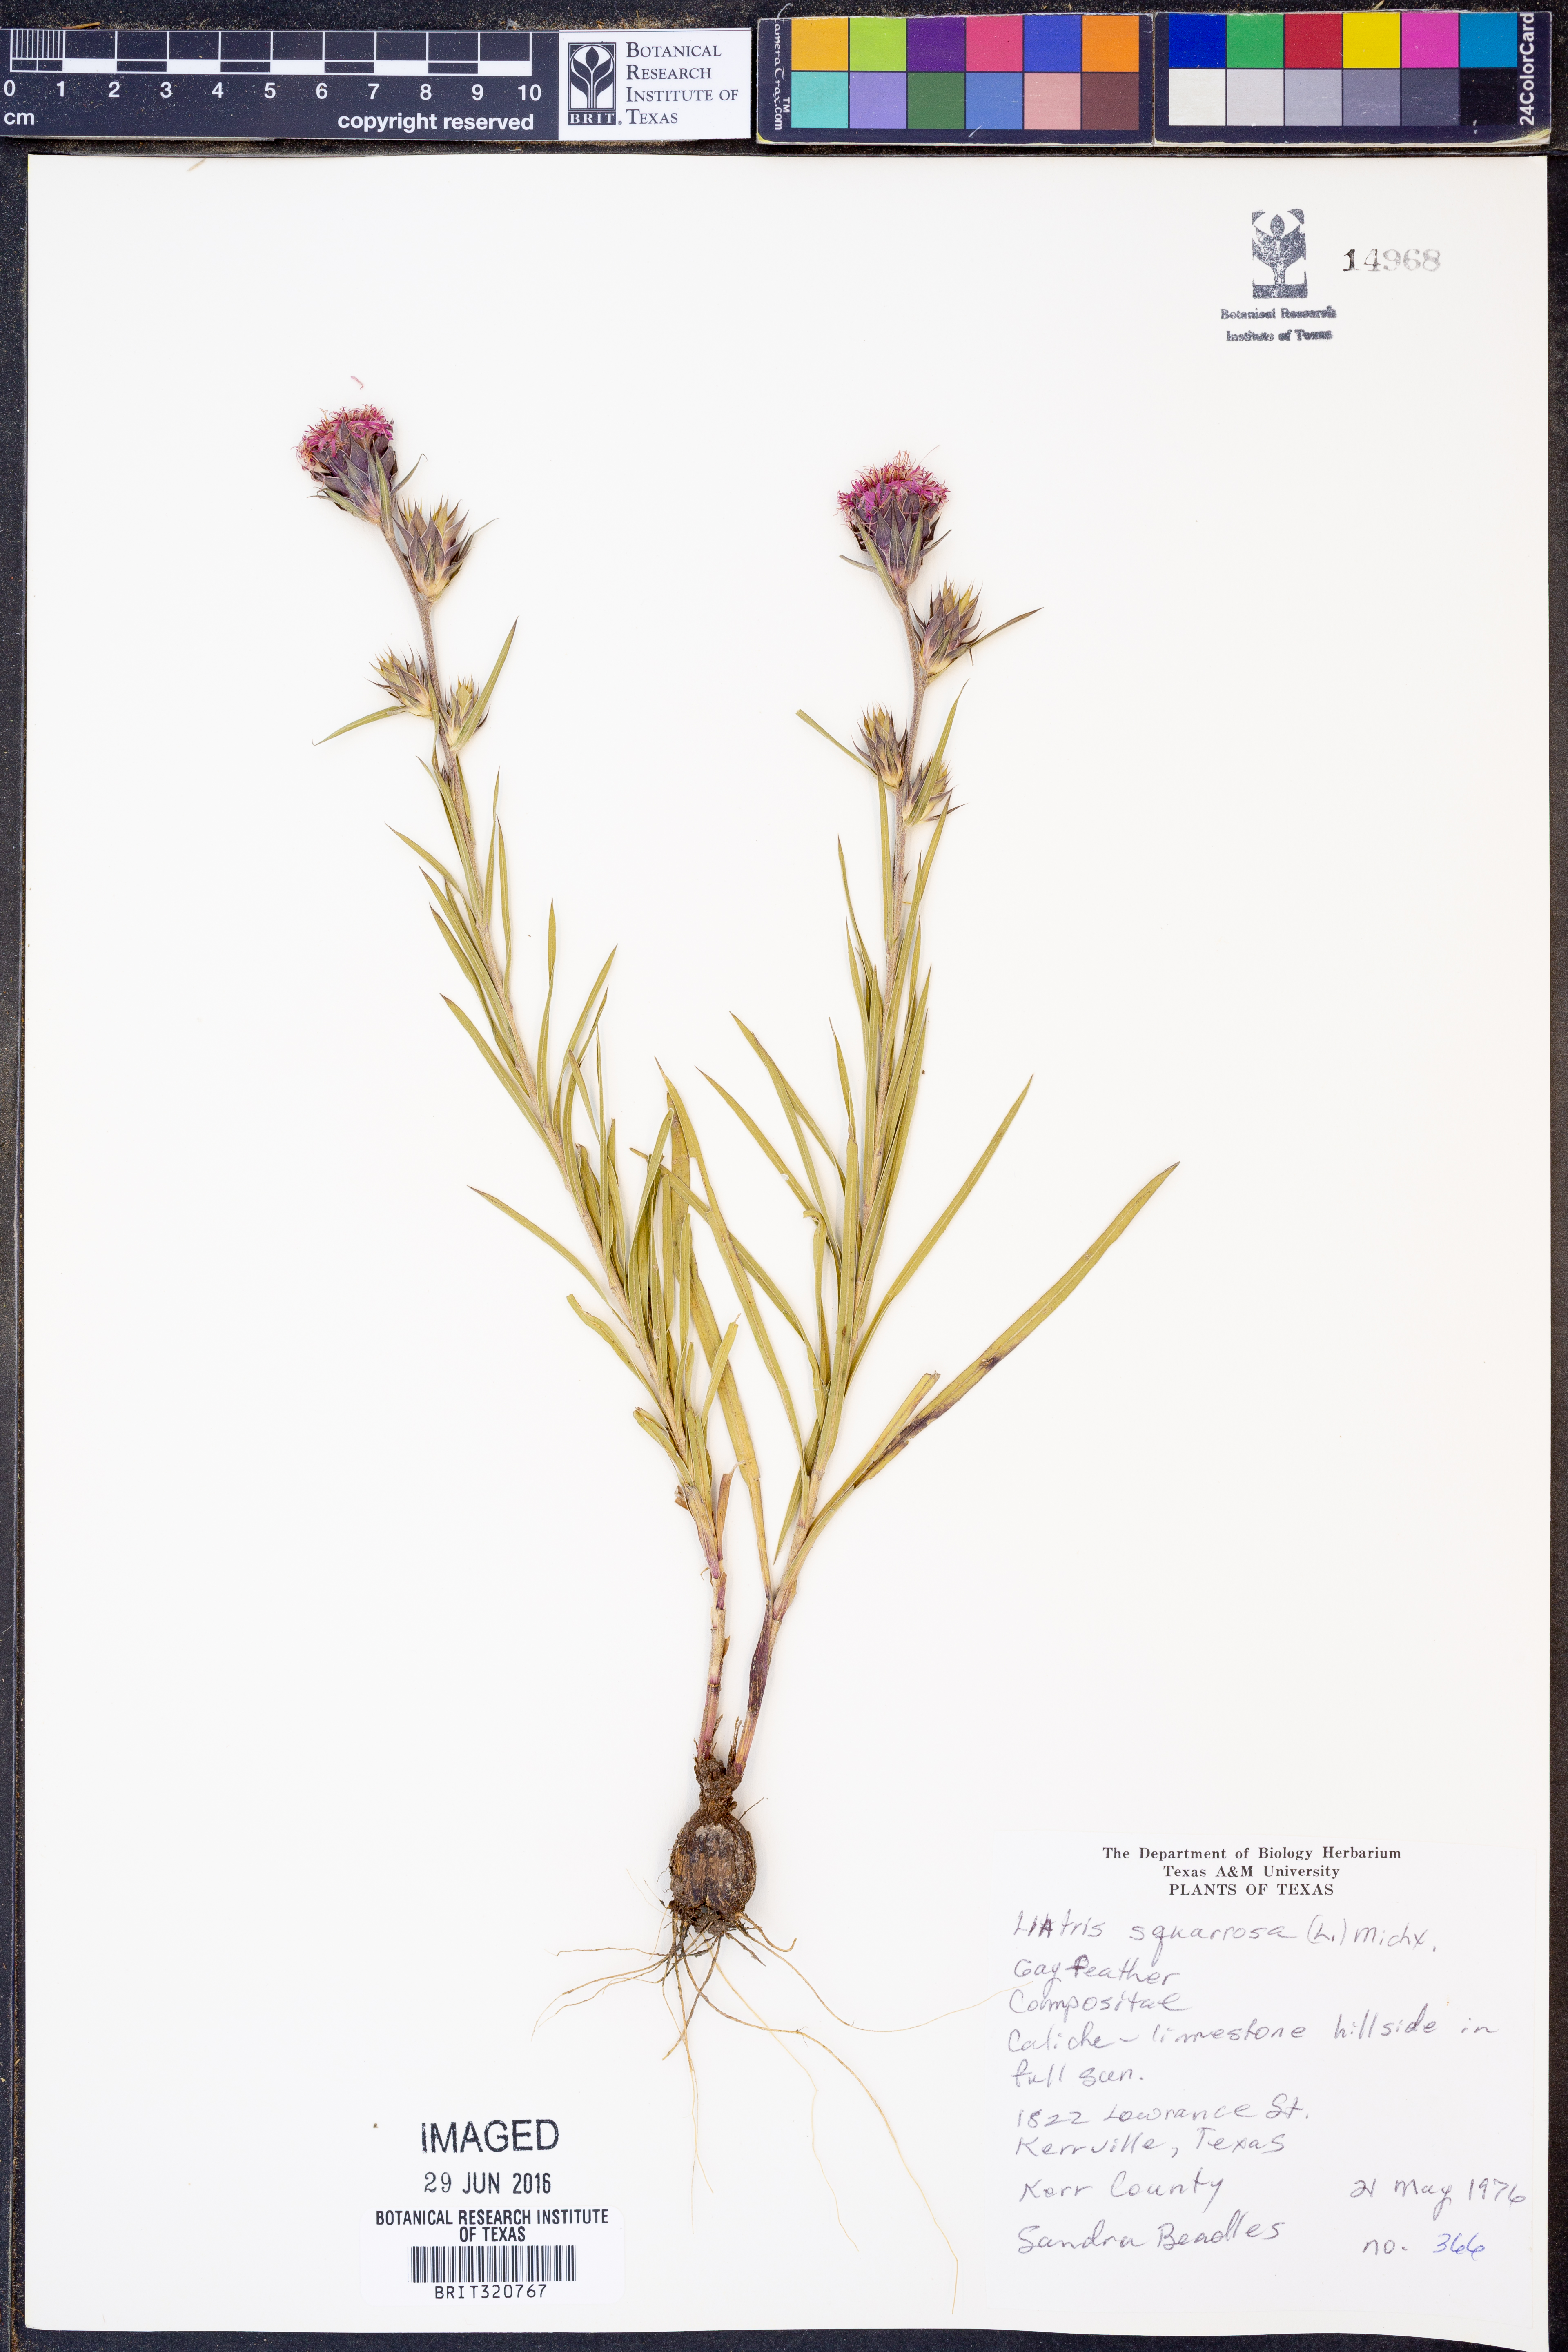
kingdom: Plantae
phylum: Tracheophyta
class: Magnoliopsida
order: Asterales
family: Asteraceae
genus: Liatris
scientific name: Liatris squarrosa
